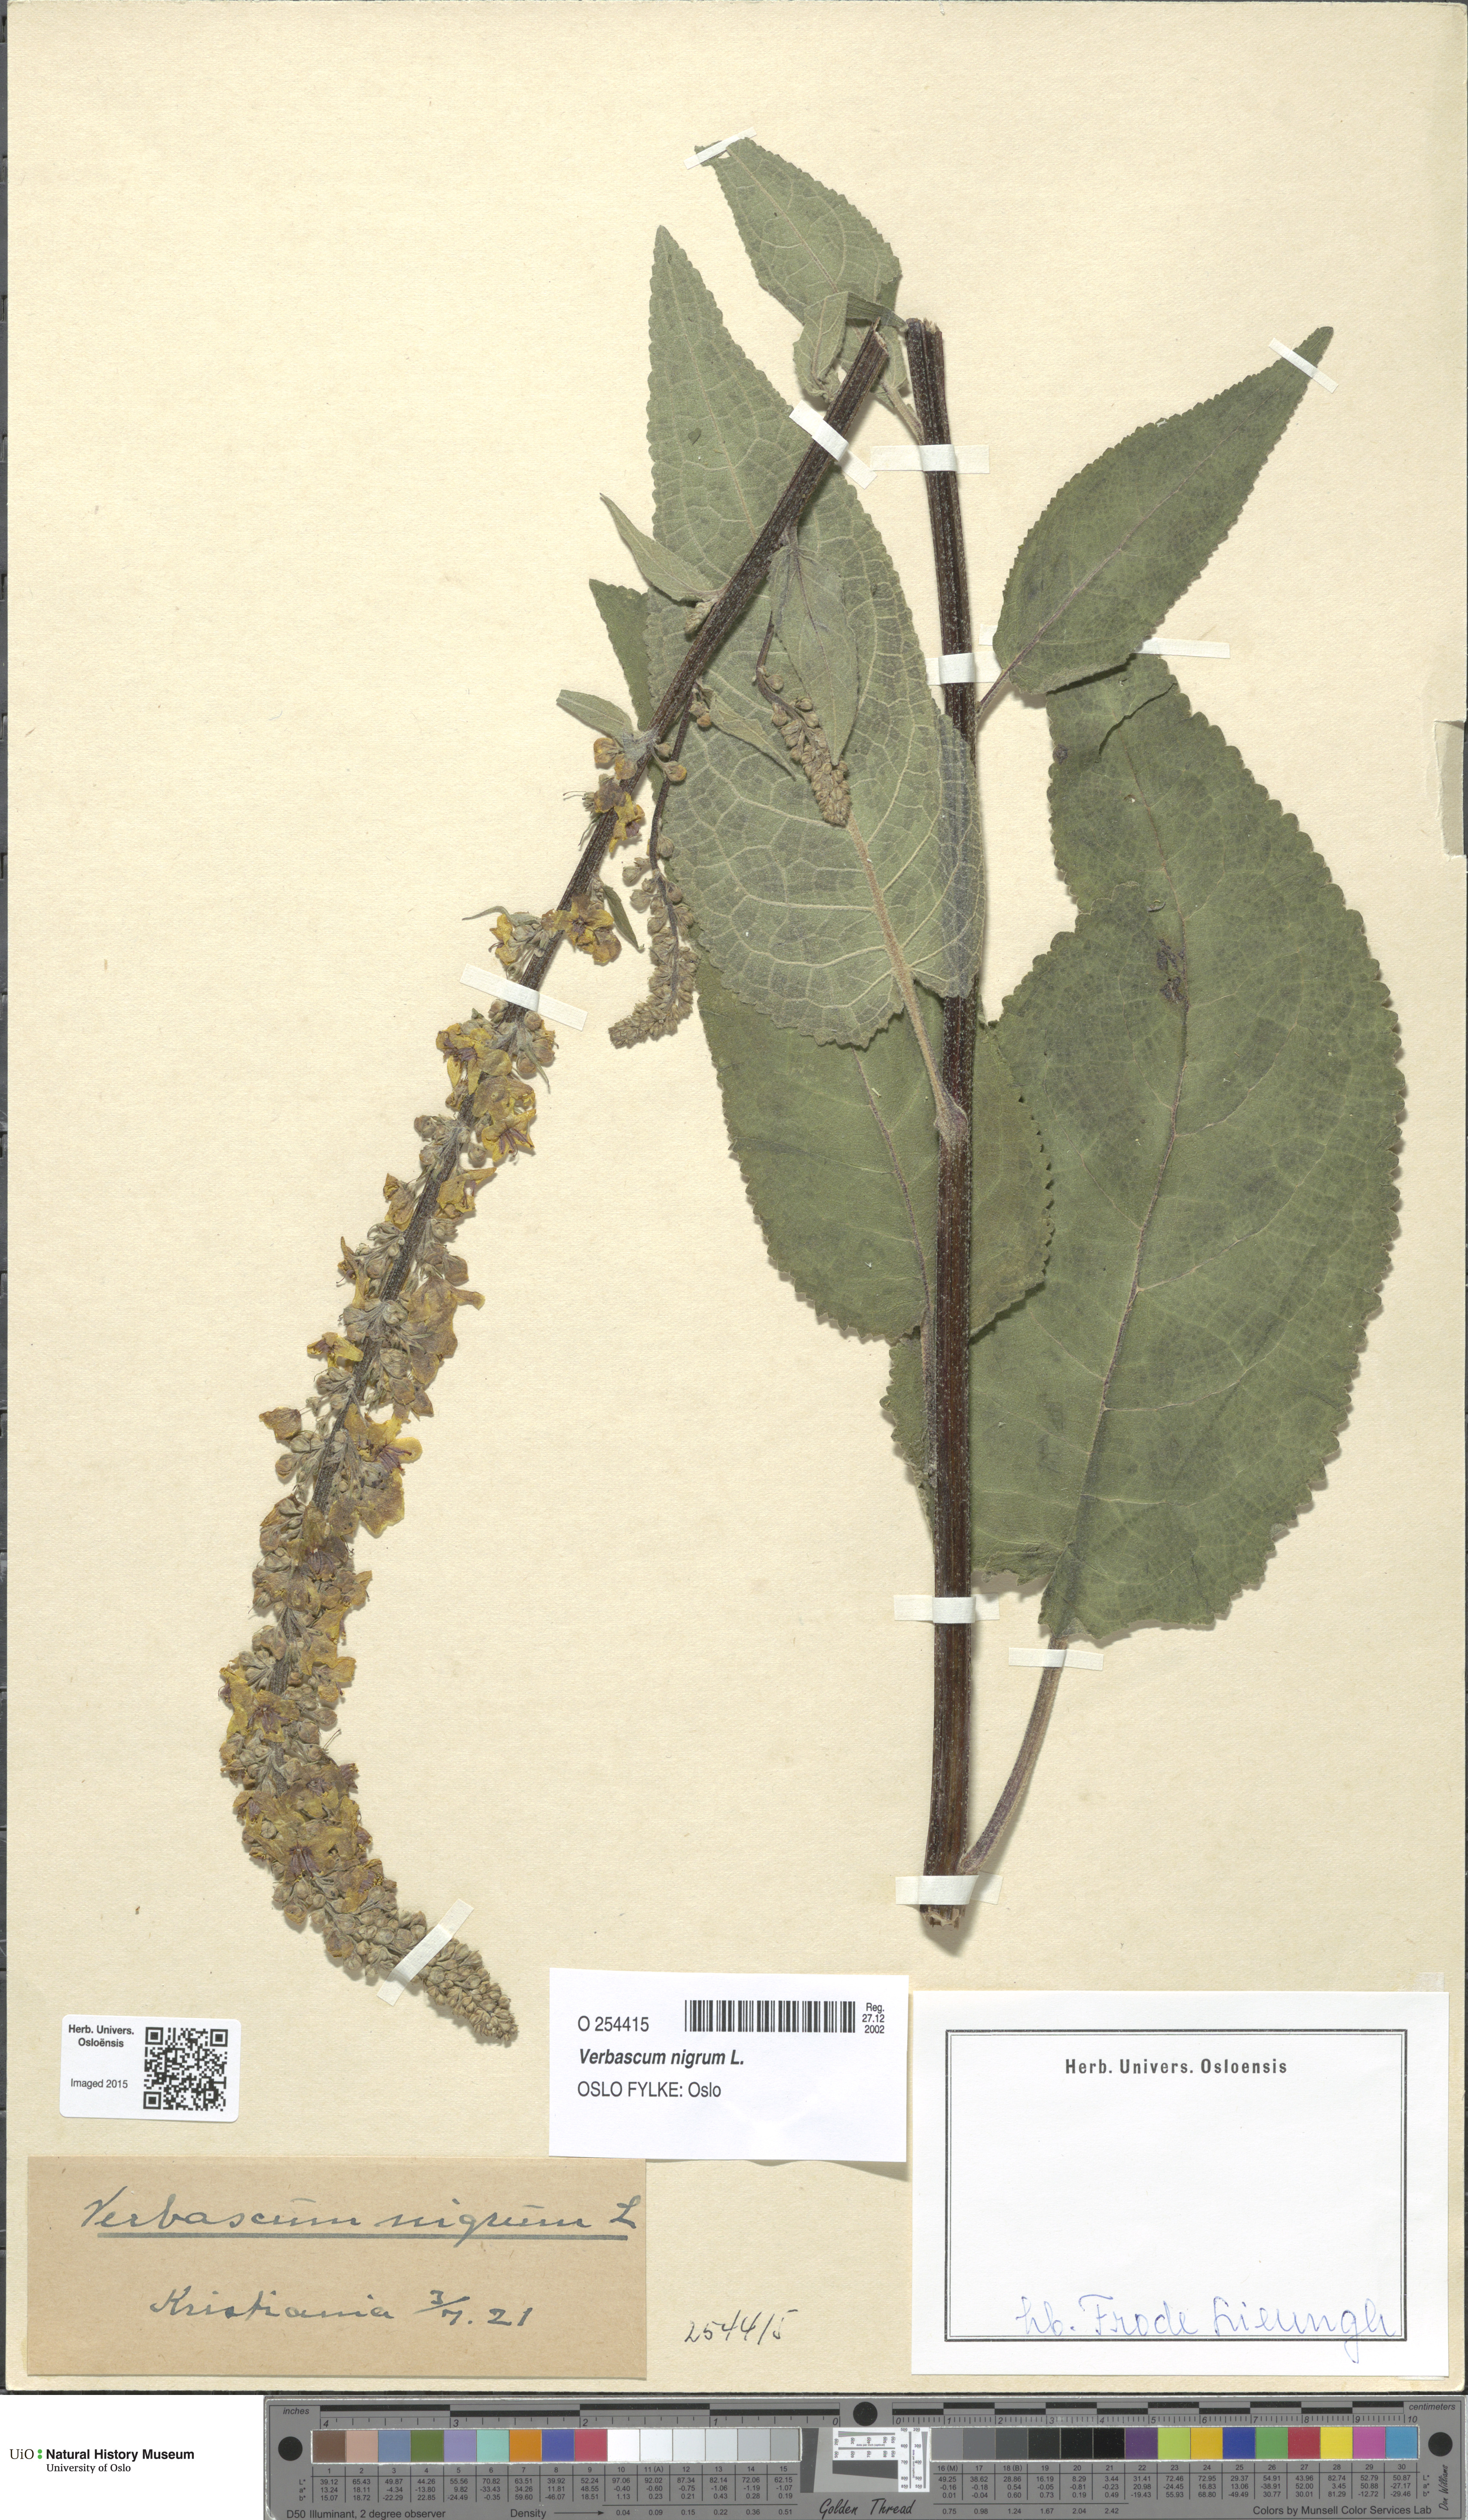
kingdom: Plantae
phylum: Tracheophyta
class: Magnoliopsida
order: Lamiales
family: Scrophulariaceae
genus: Verbascum
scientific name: Verbascum nigrum
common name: Dark mullein
